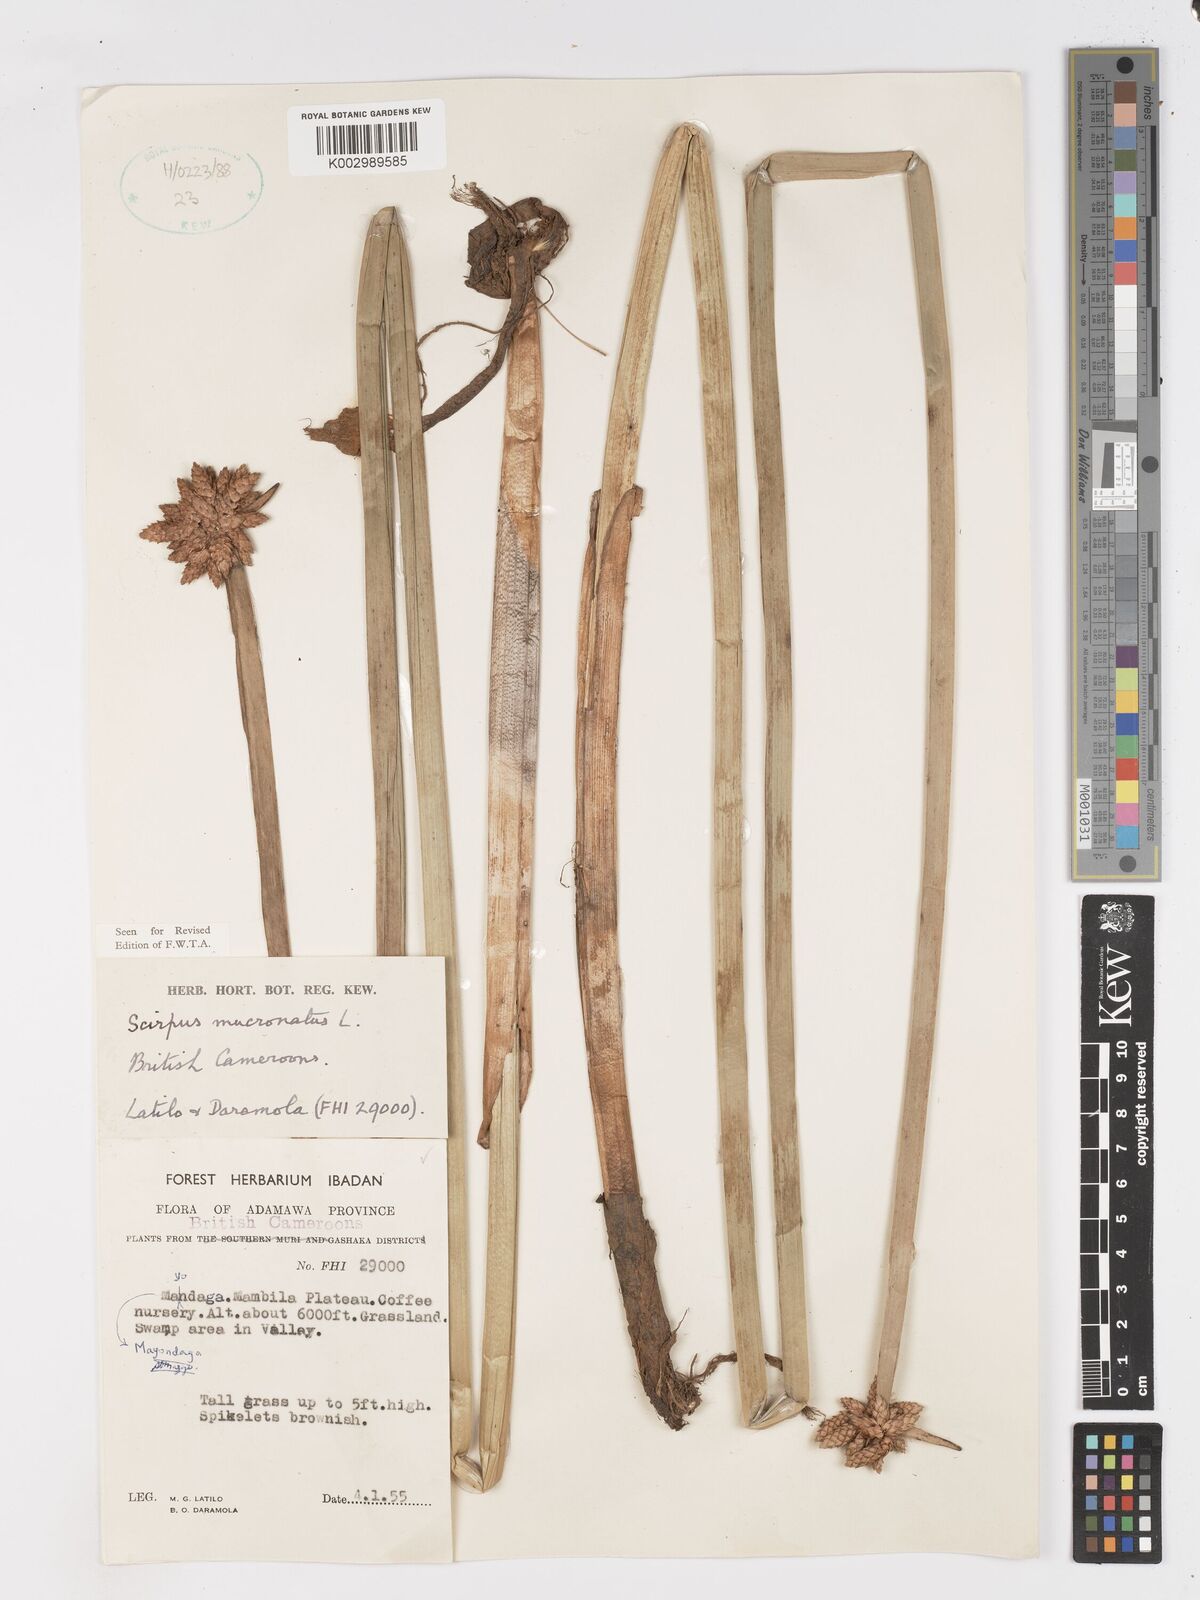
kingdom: Plantae
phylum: Tracheophyta
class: Liliopsida
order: Poales
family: Cyperaceae
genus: Schoenoplectiella
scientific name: Schoenoplectiella mucronata
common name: Bog bulrush
